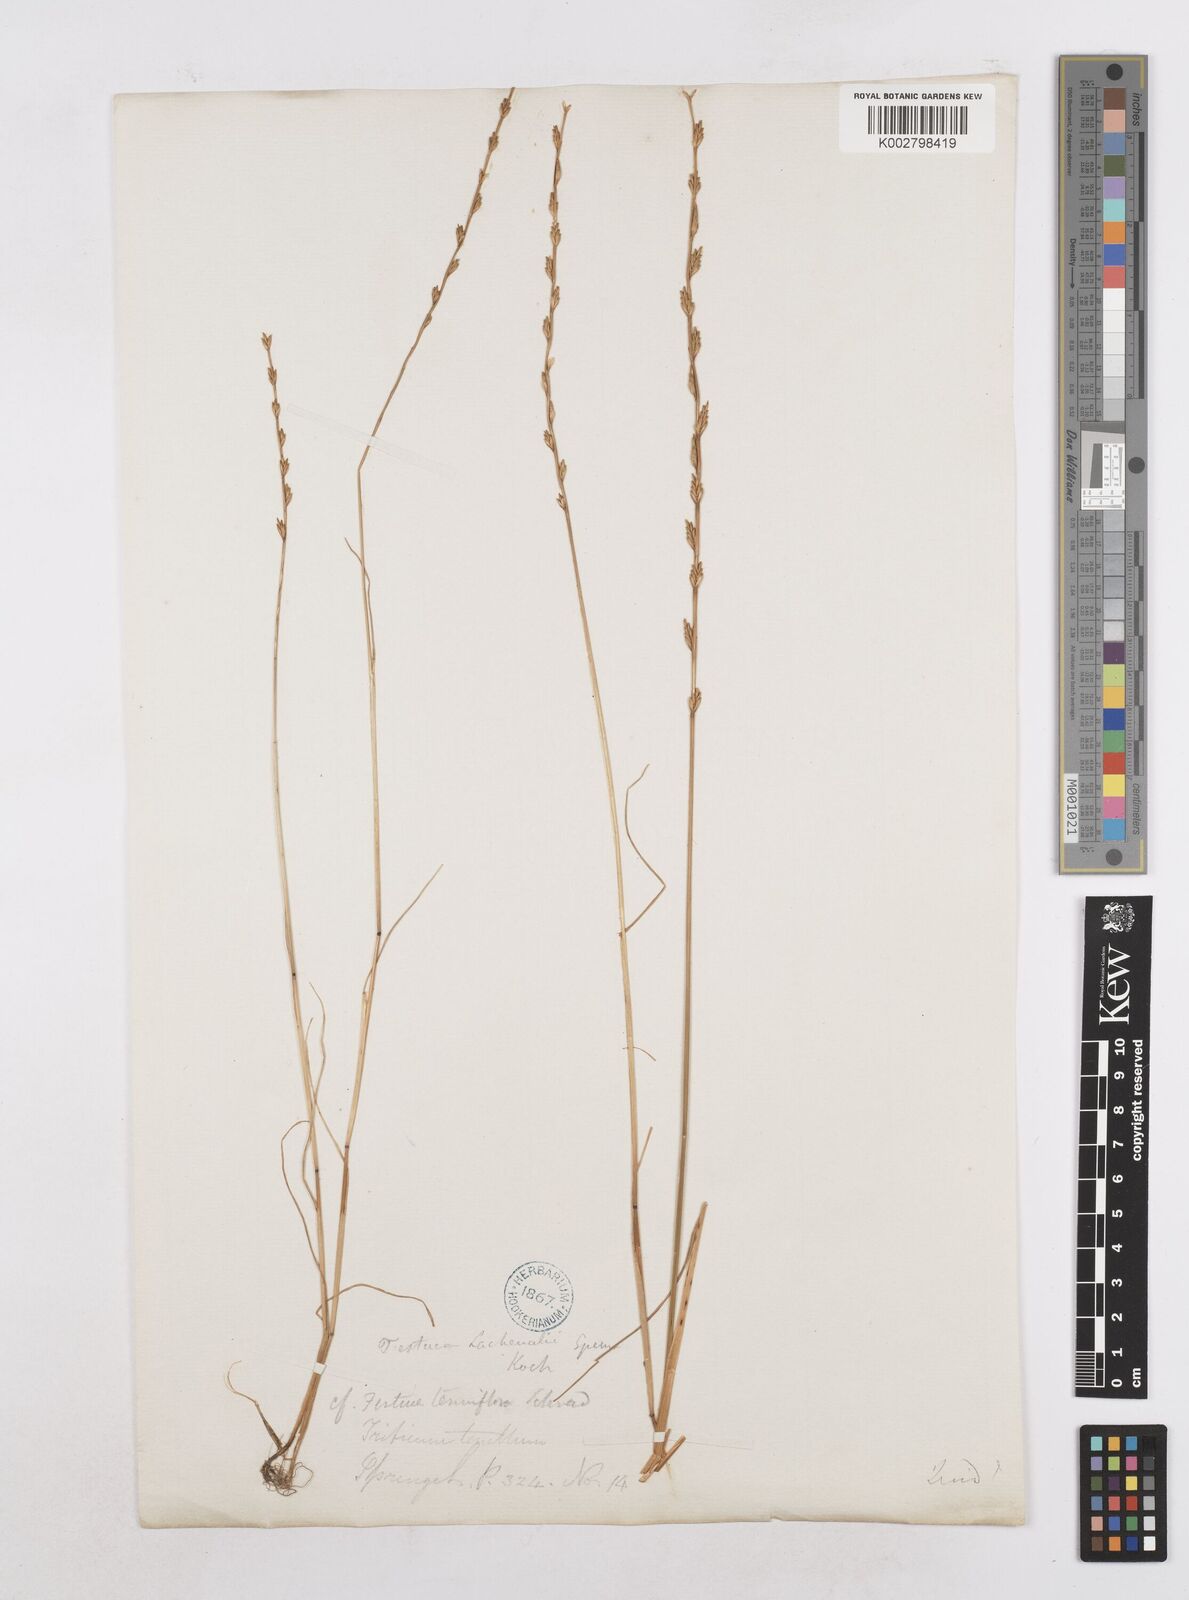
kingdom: Plantae
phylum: Tracheophyta
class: Liliopsida
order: Poales
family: Poaceae
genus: Festuca
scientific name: Festuca lachenalii
